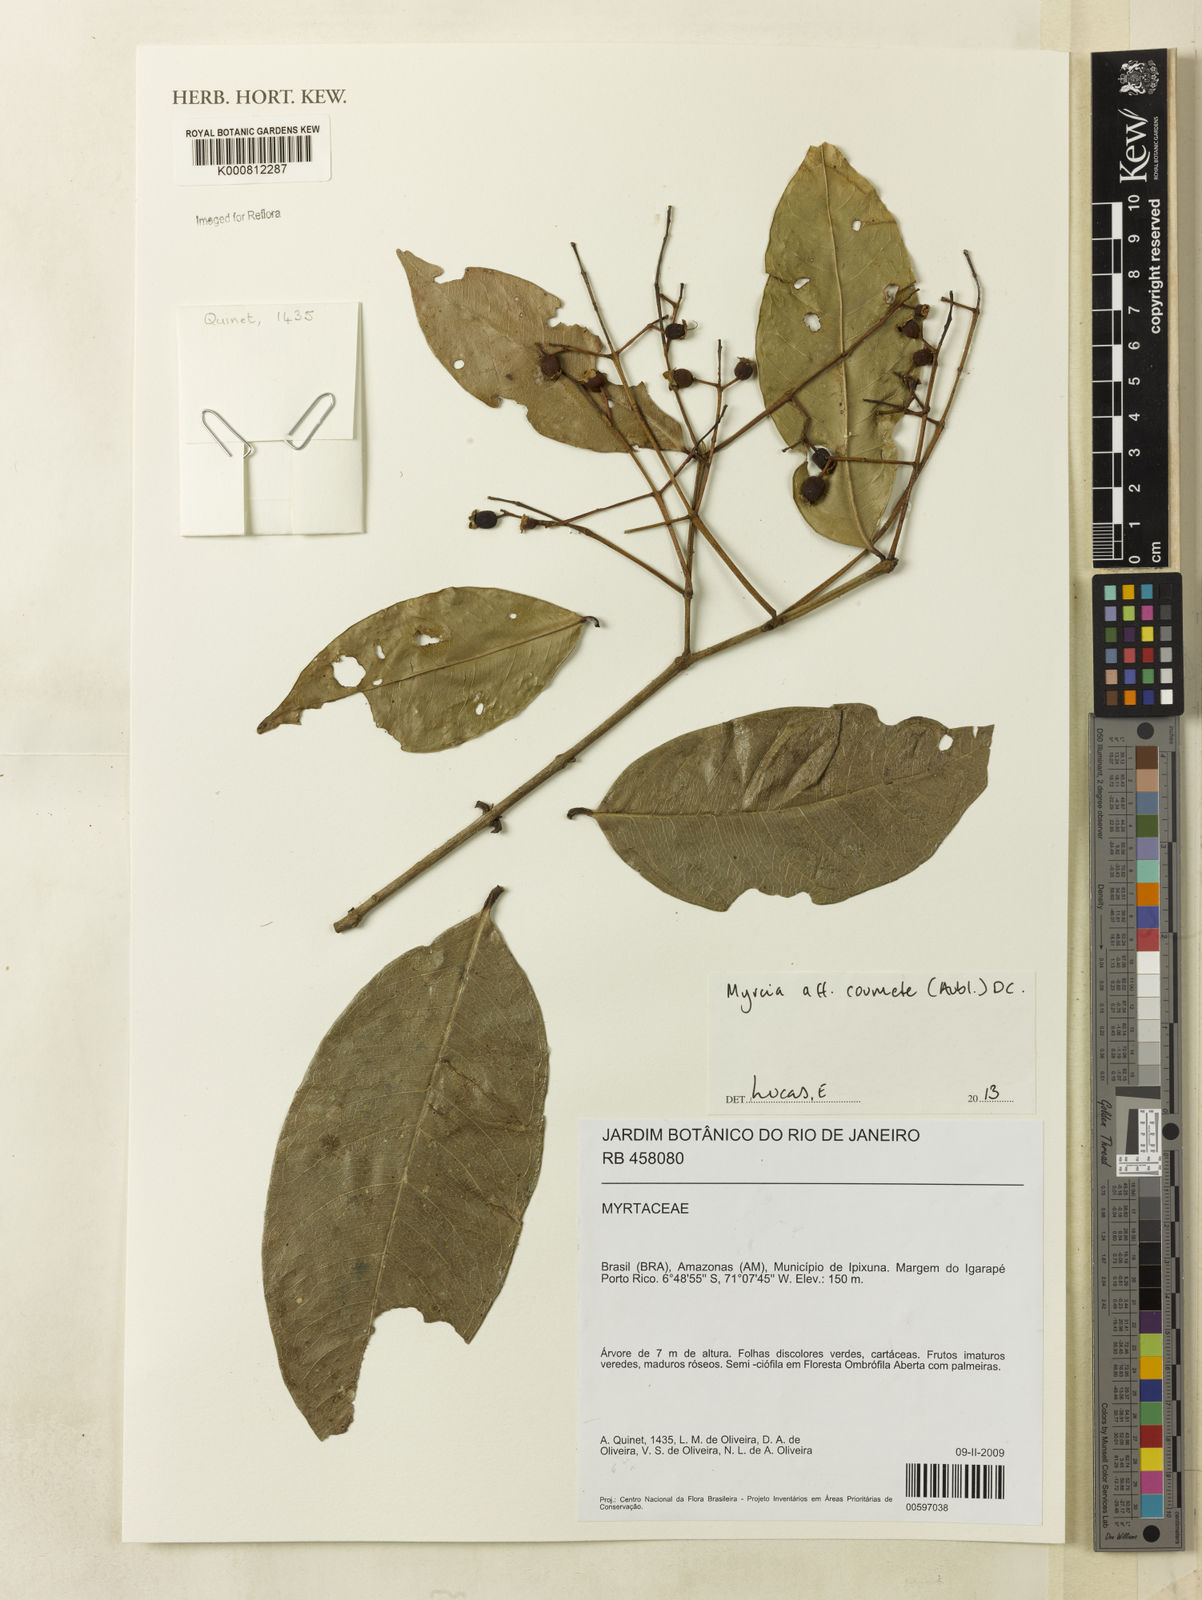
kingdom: Plantae
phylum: Tracheophyta
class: Magnoliopsida
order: Myrtales
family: Myrtaceae
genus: Myrcia
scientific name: Myrcia coumete
